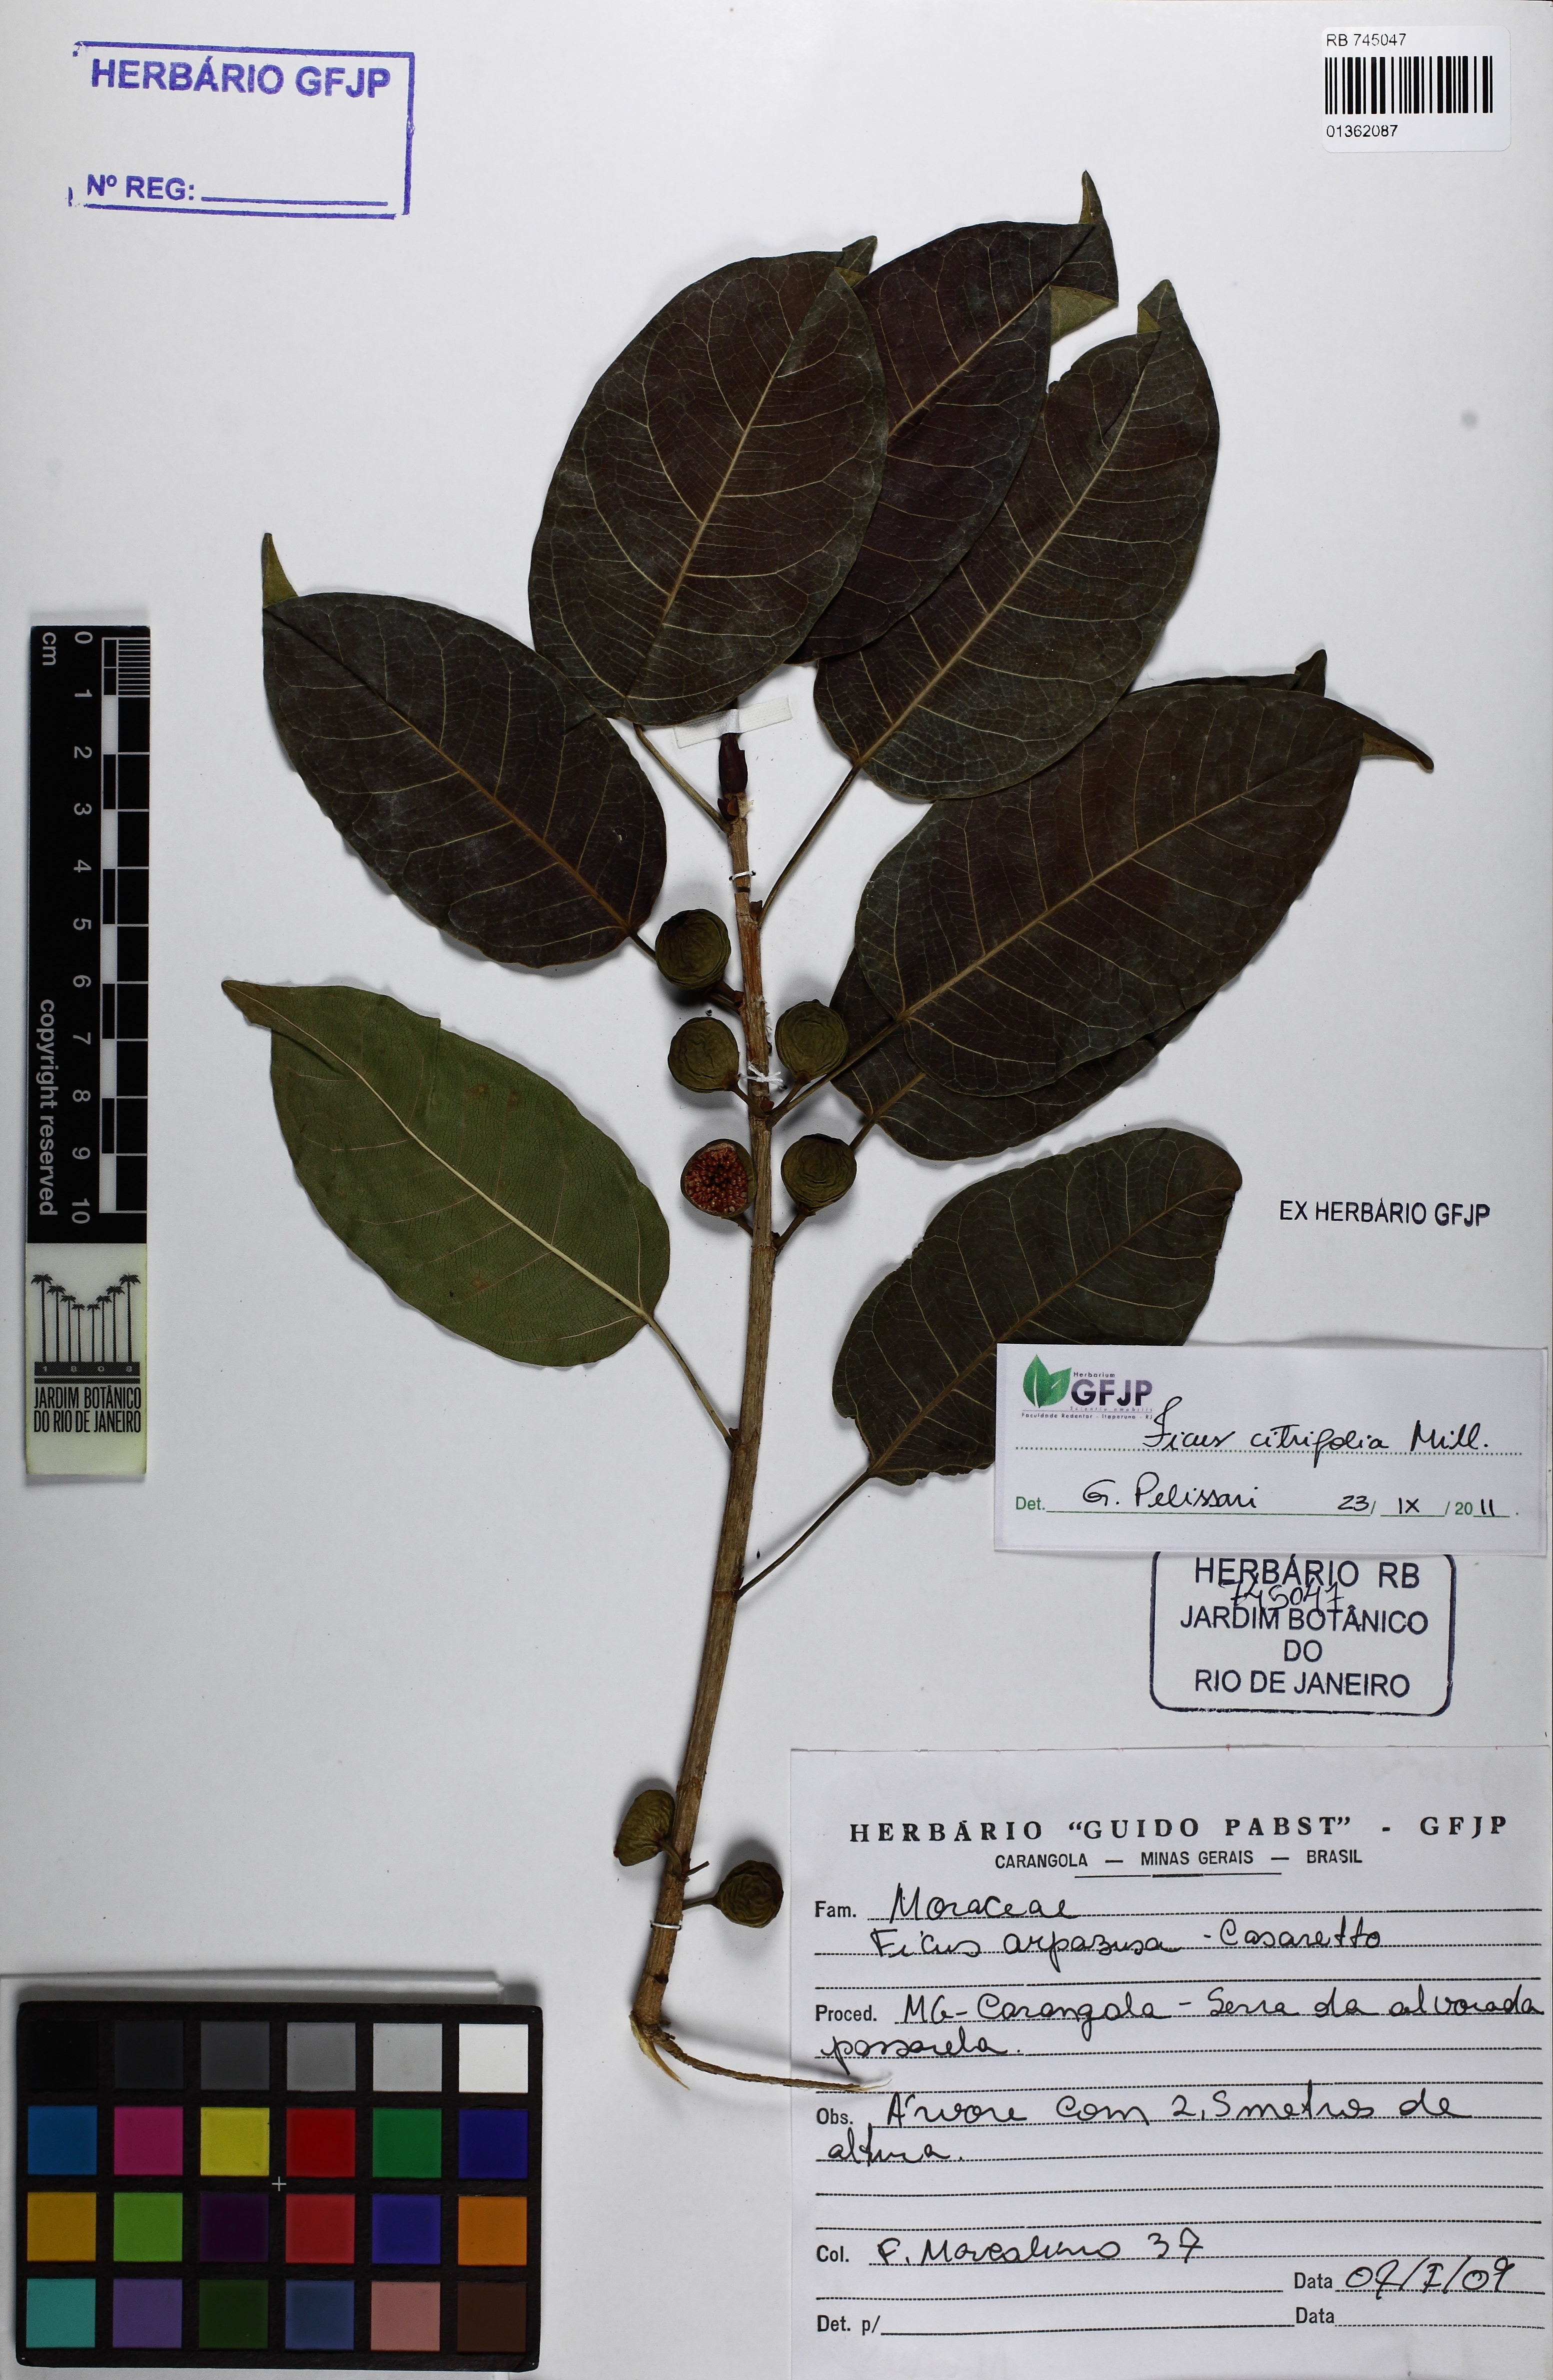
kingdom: Plantae
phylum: Tracheophyta
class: Magnoliopsida
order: Rosales
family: Moraceae
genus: Ficus
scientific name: Ficus arpazusa
